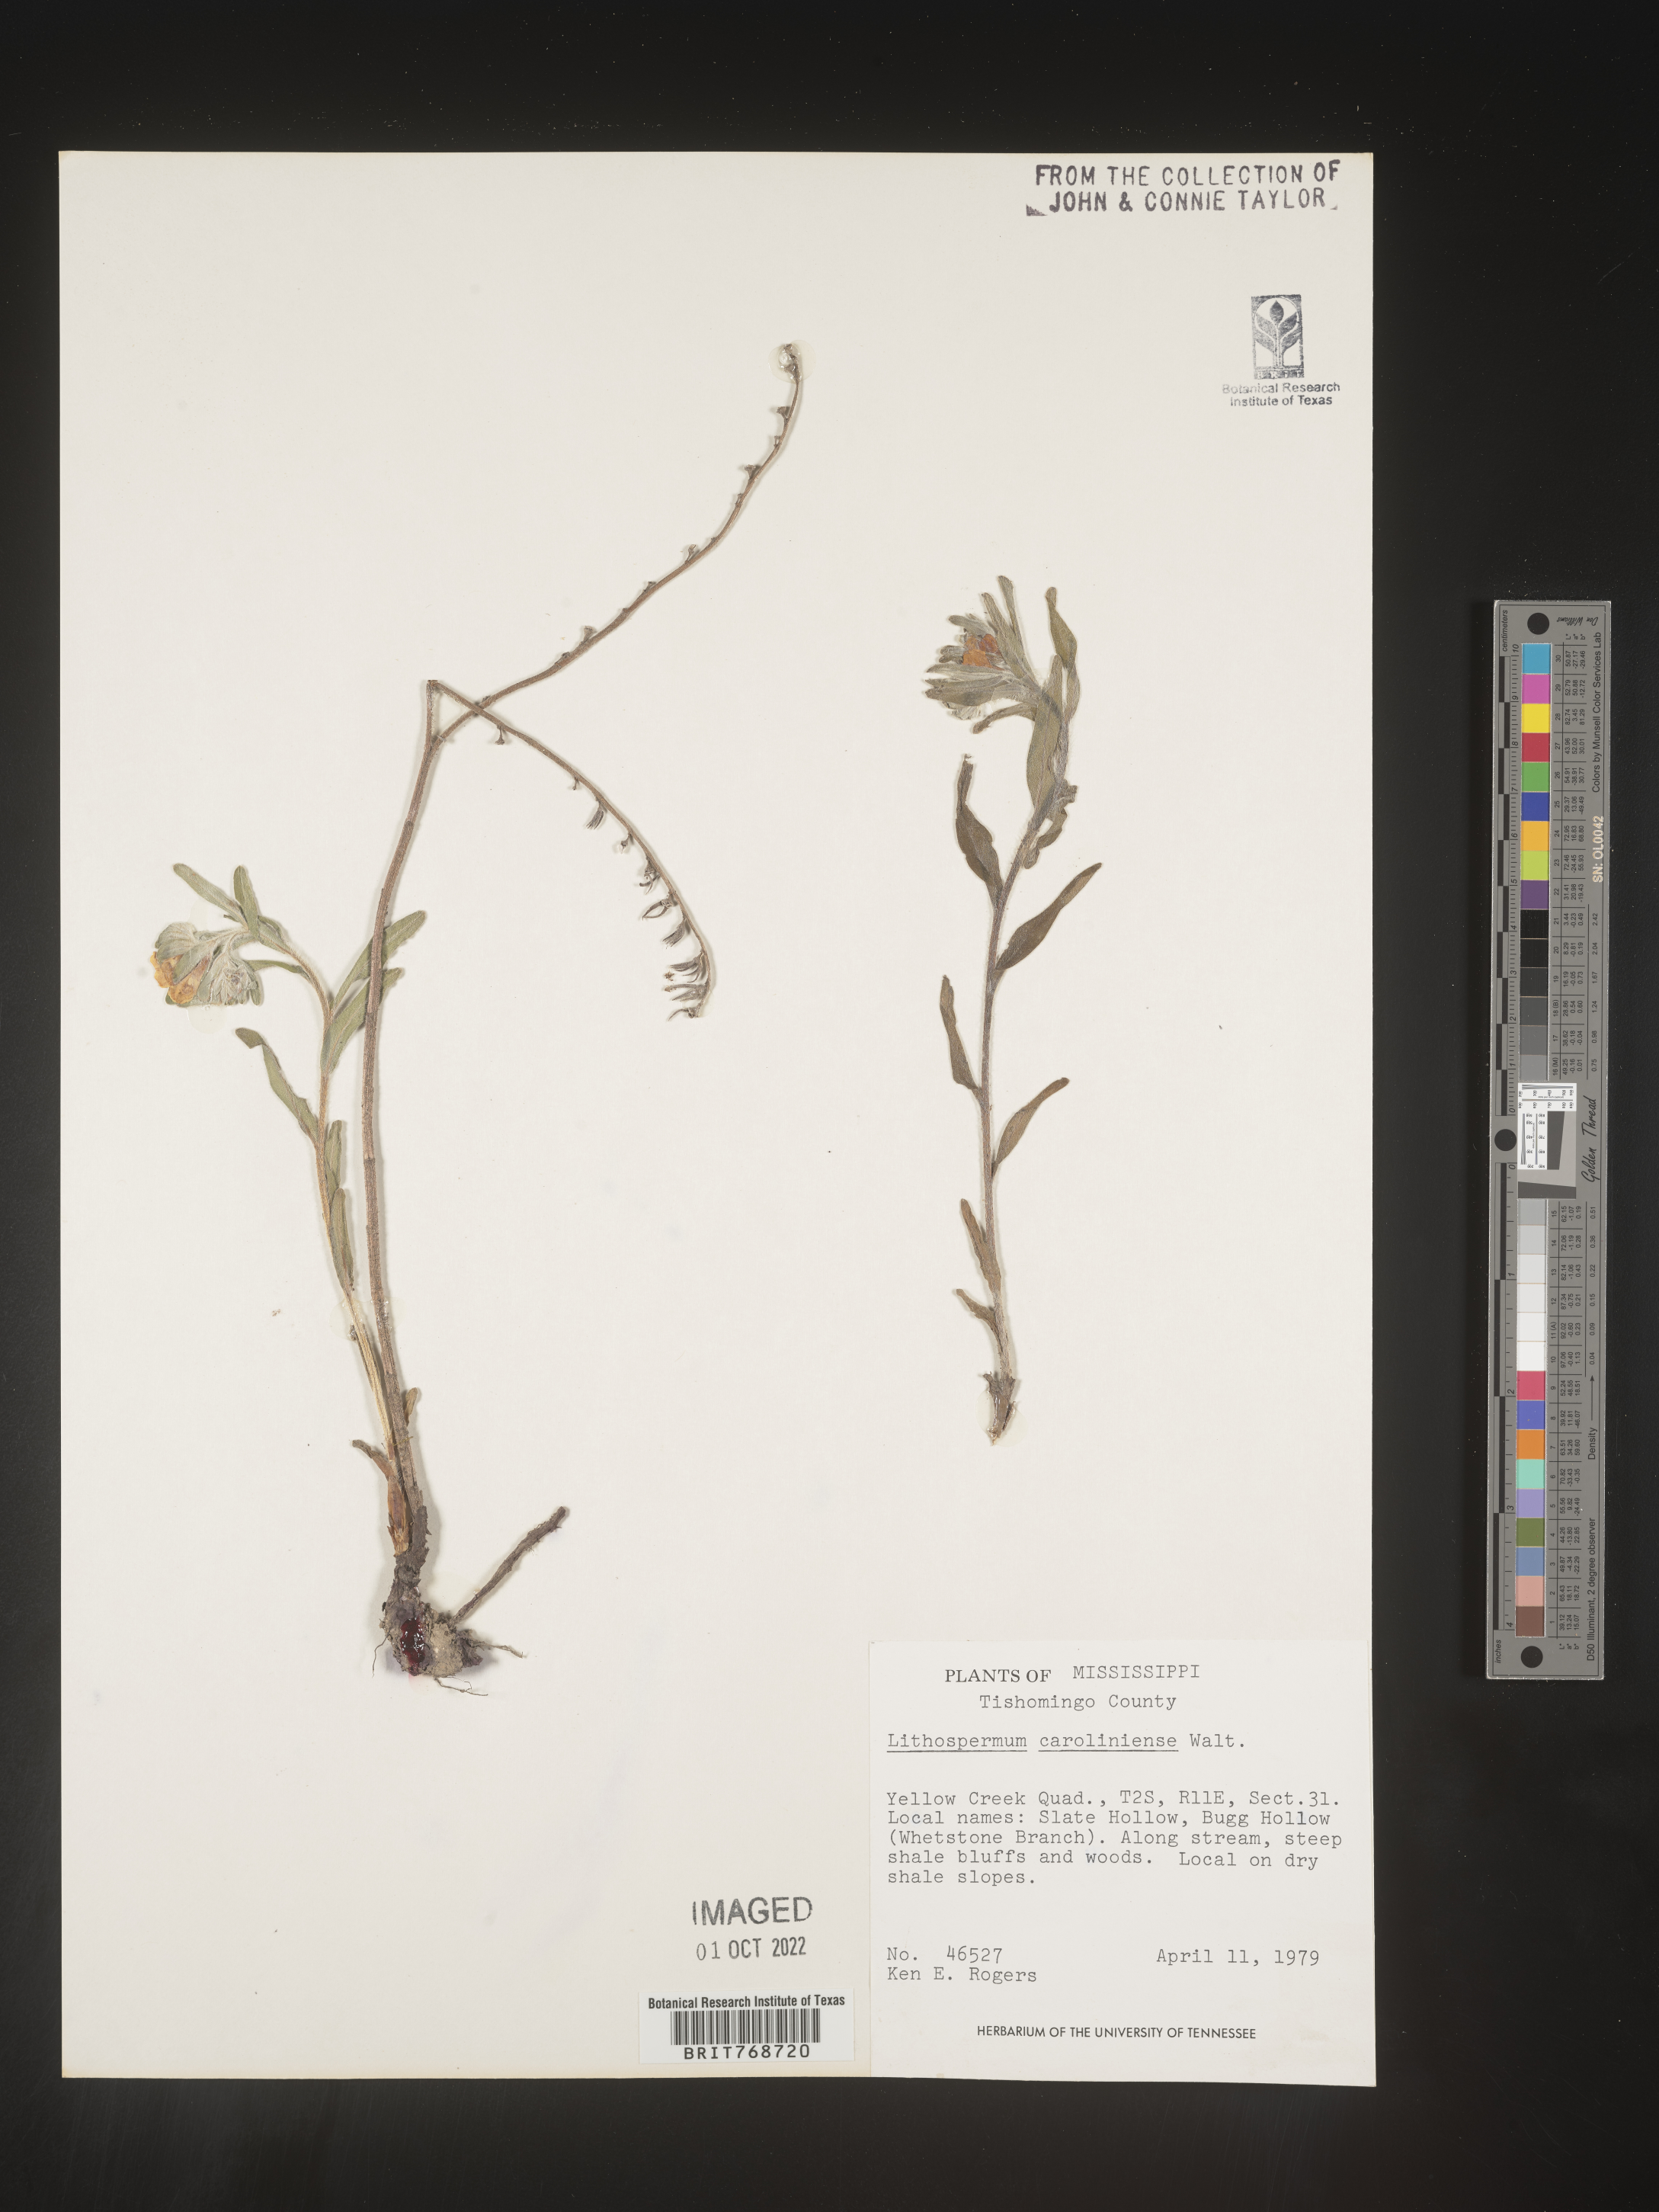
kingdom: Plantae
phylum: Tracheophyta
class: Magnoliopsida
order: Boraginales
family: Boraginaceae
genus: Lithospermum
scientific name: Lithospermum caroliniense
